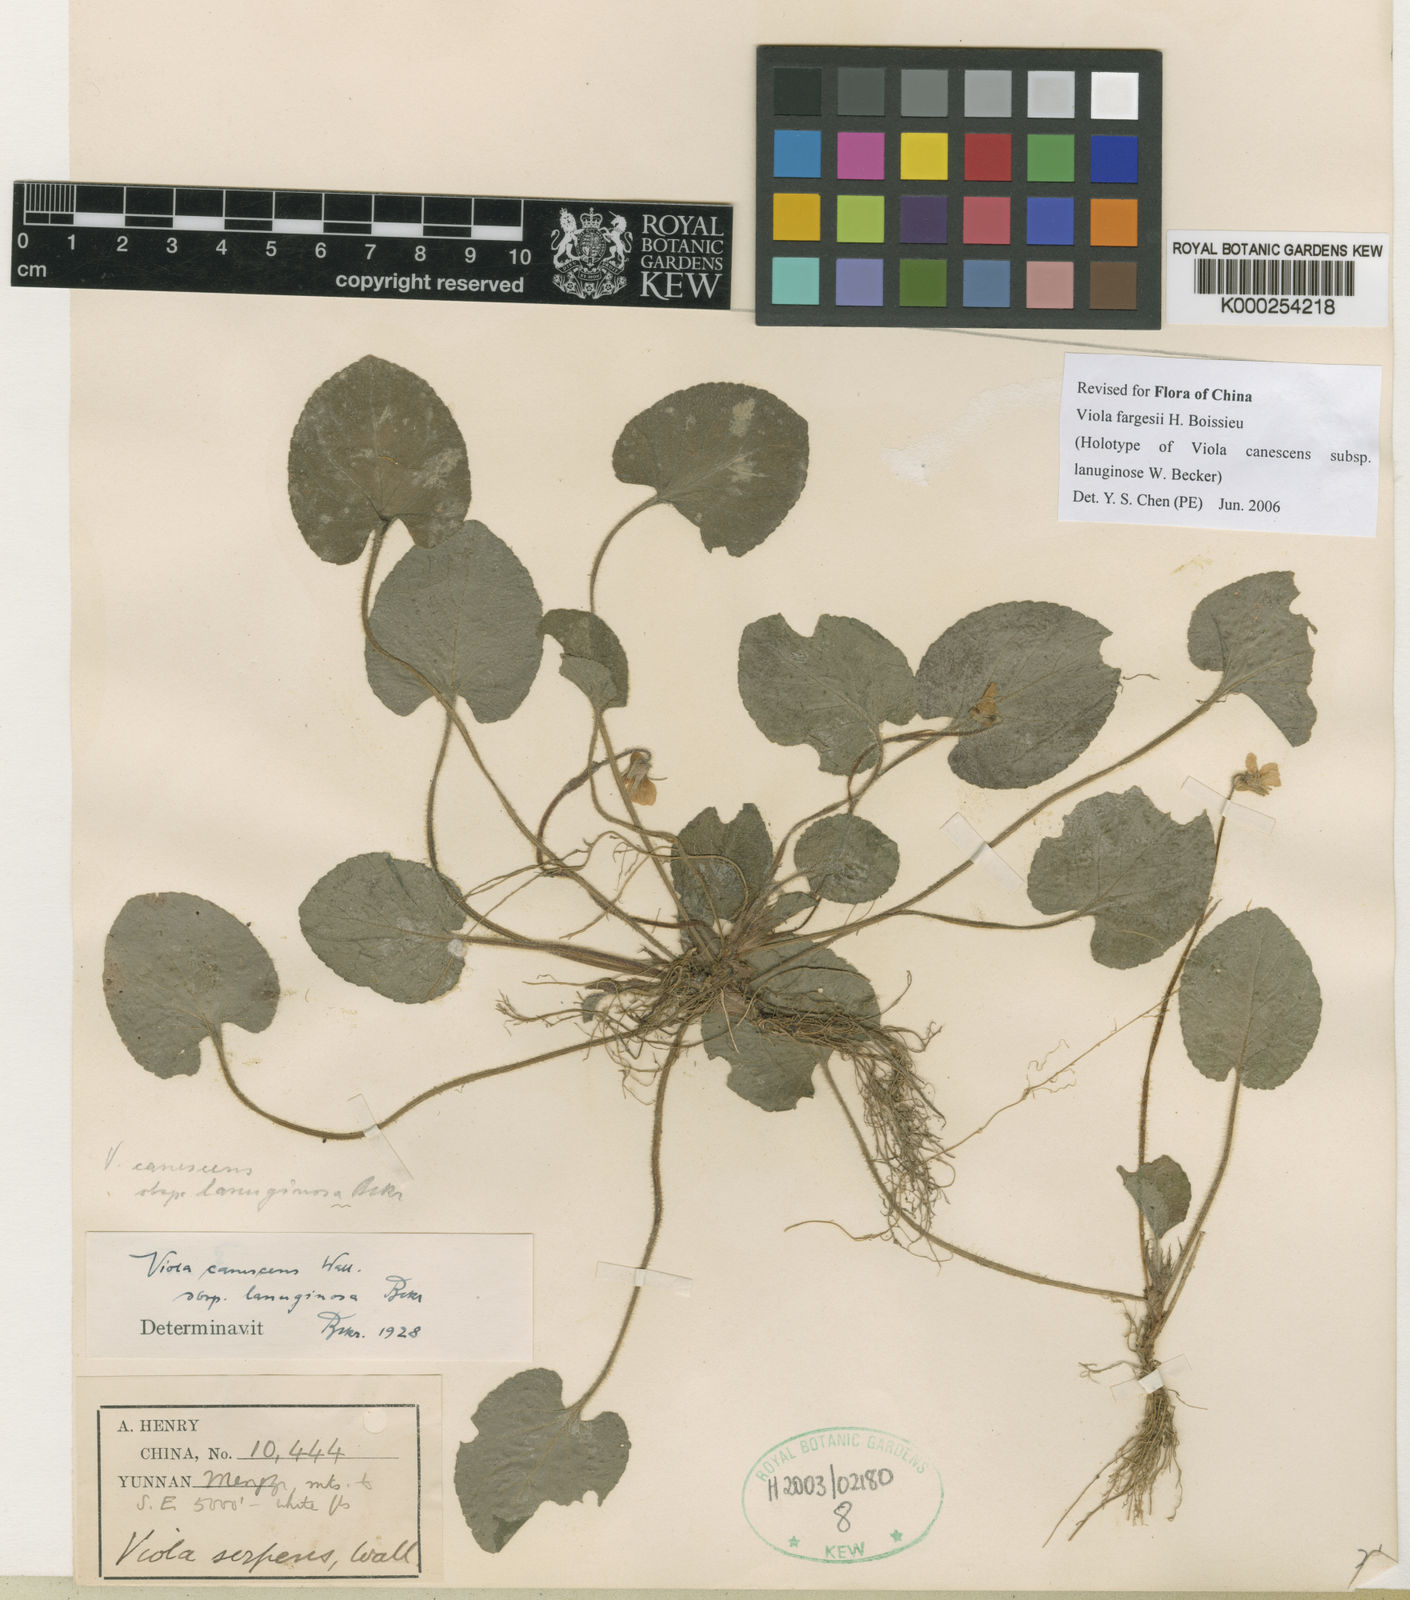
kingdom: Plantae
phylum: Tracheophyta
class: Magnoliopsida
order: Malpighiales
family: Violaceae
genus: Viola
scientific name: Viola canescens
